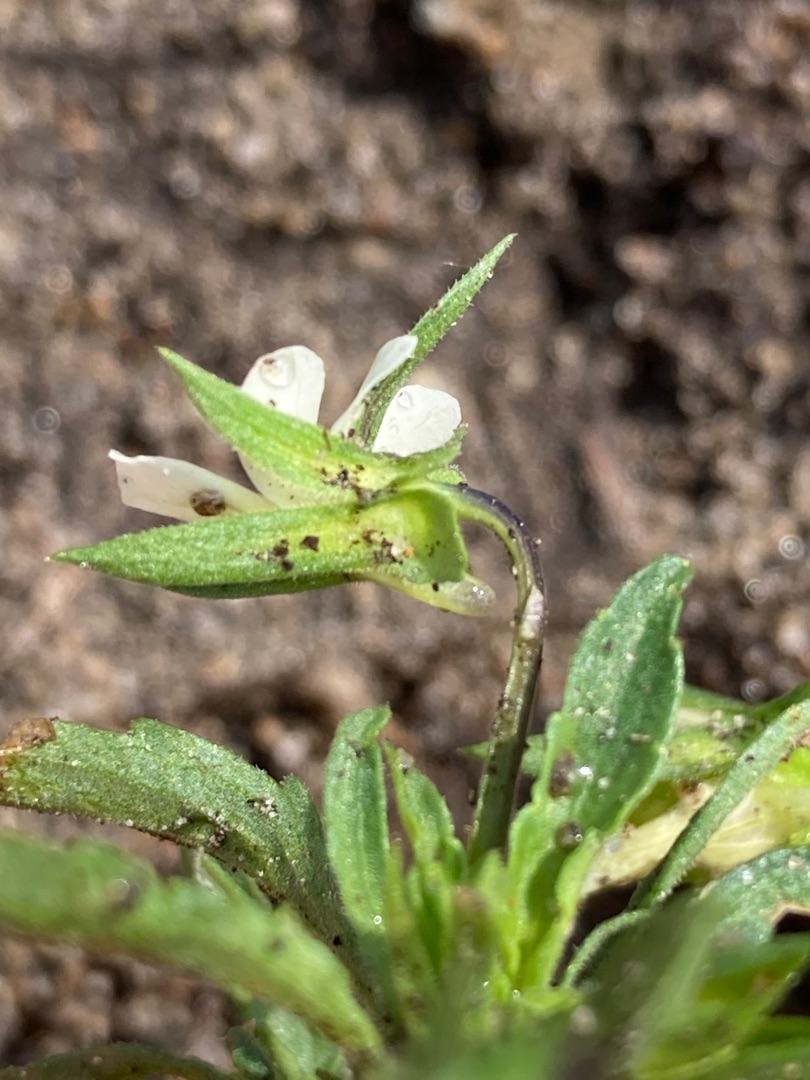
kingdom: Plantae
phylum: Tracheophyta
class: Magnoliopsida
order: Malpighiales
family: Violaceae
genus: Viola
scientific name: Viola arvensis
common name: Ager-stedmoderblomst
